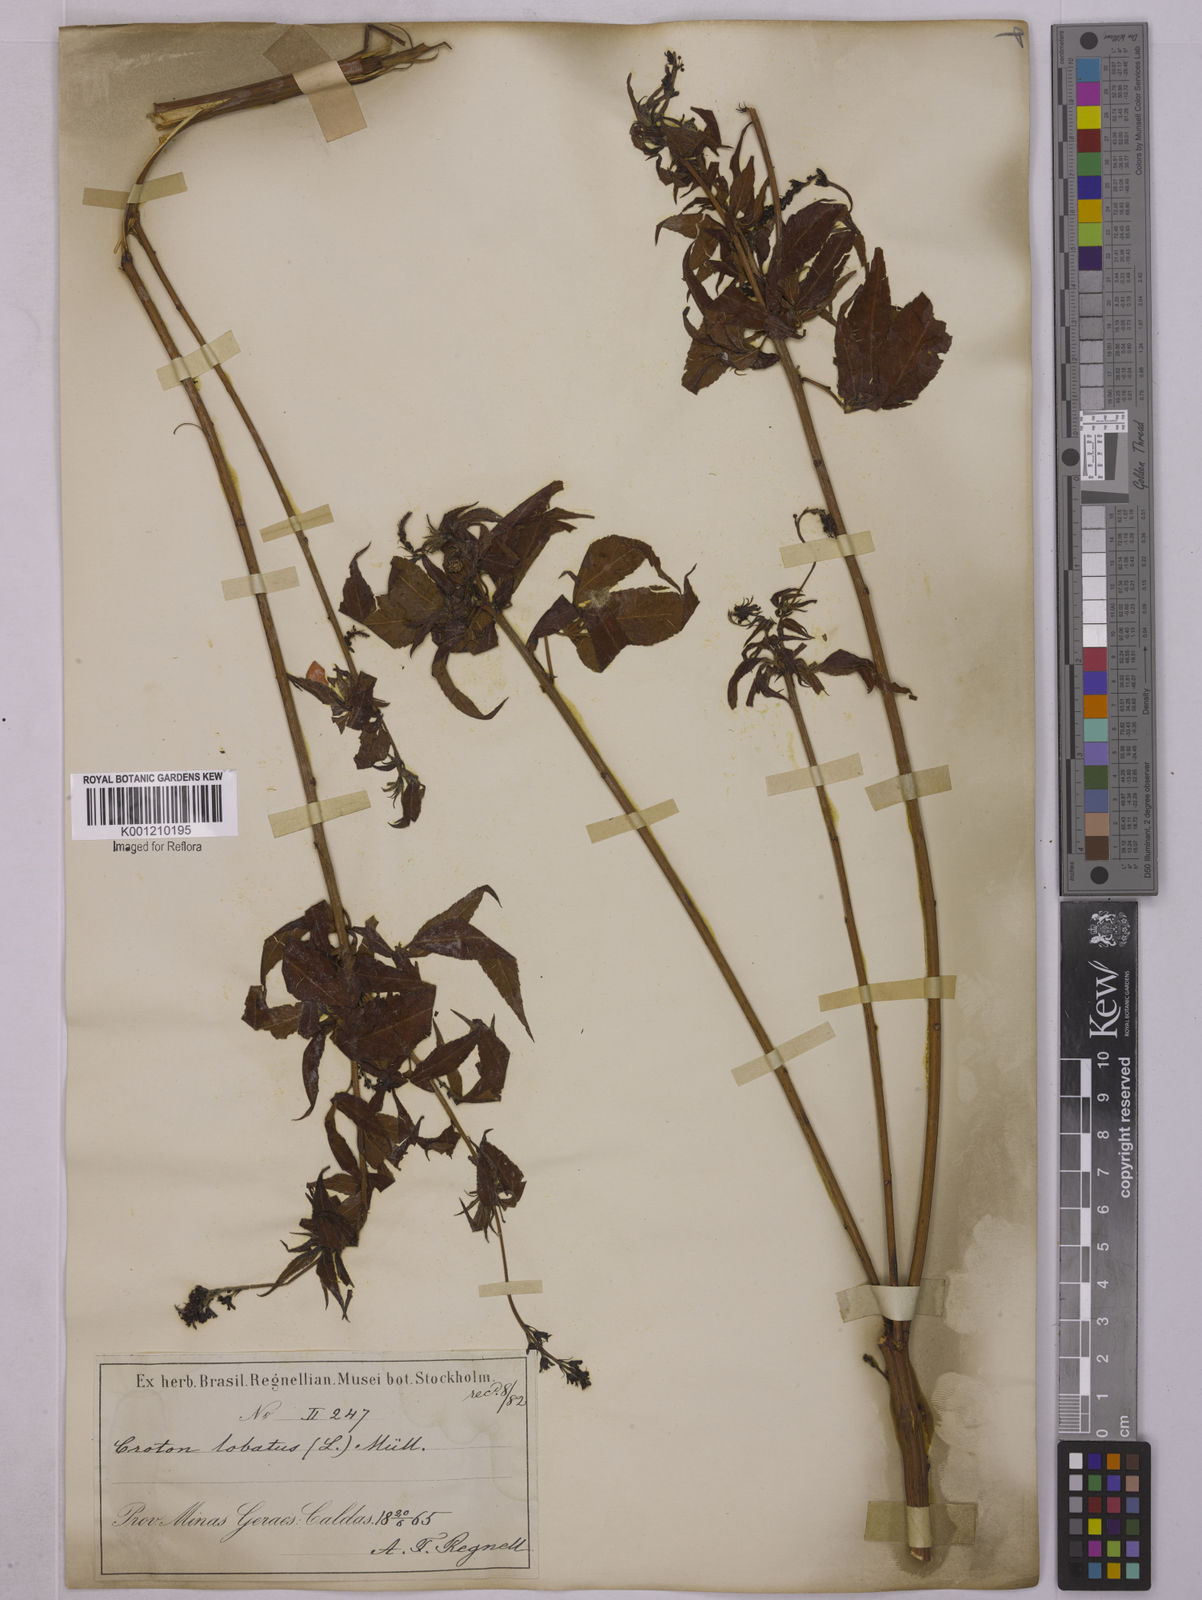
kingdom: Plantae
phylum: Tracheophyta
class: Magnoliopsida
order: Malpighiales
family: Euphorbiaceae
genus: Astraea
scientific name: Astraea lobata
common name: Lobed croton
